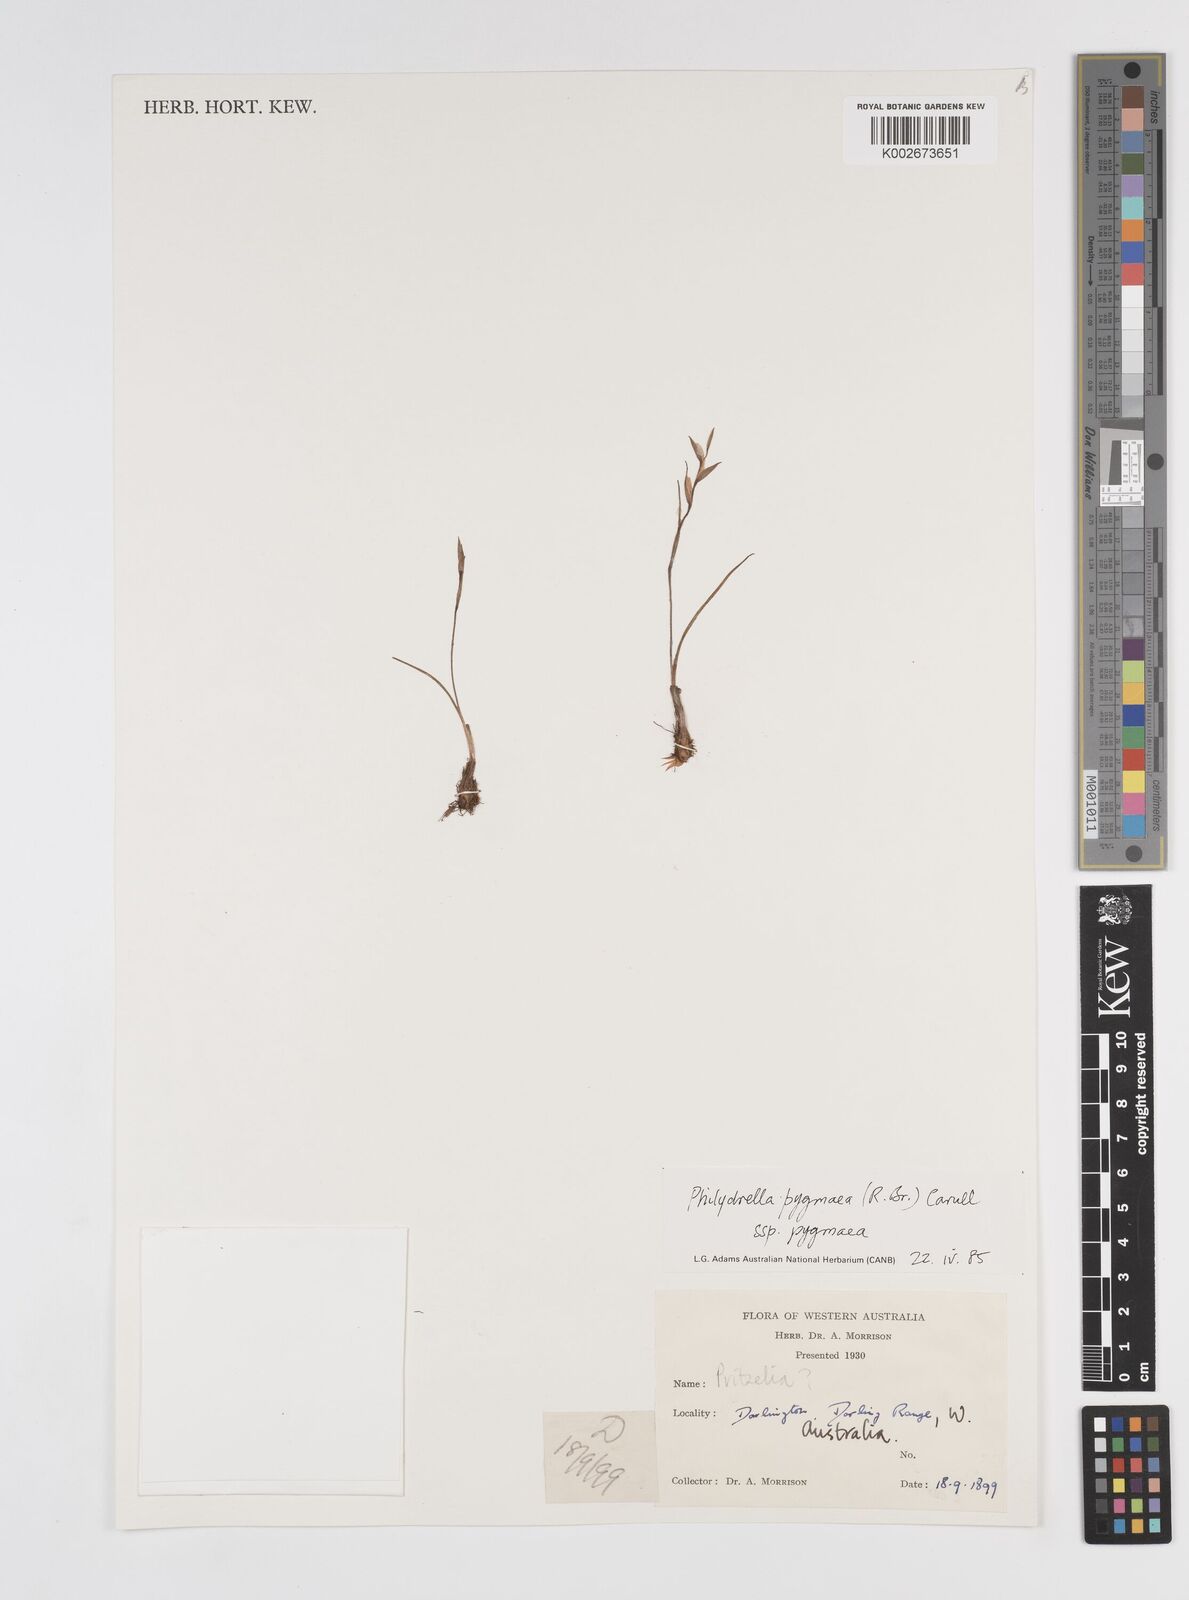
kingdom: Plantae
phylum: Tracheophyta
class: Liliopsida
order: Commelinales
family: Philydraceae
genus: Philydrella
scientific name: Philydrella pygmaea
